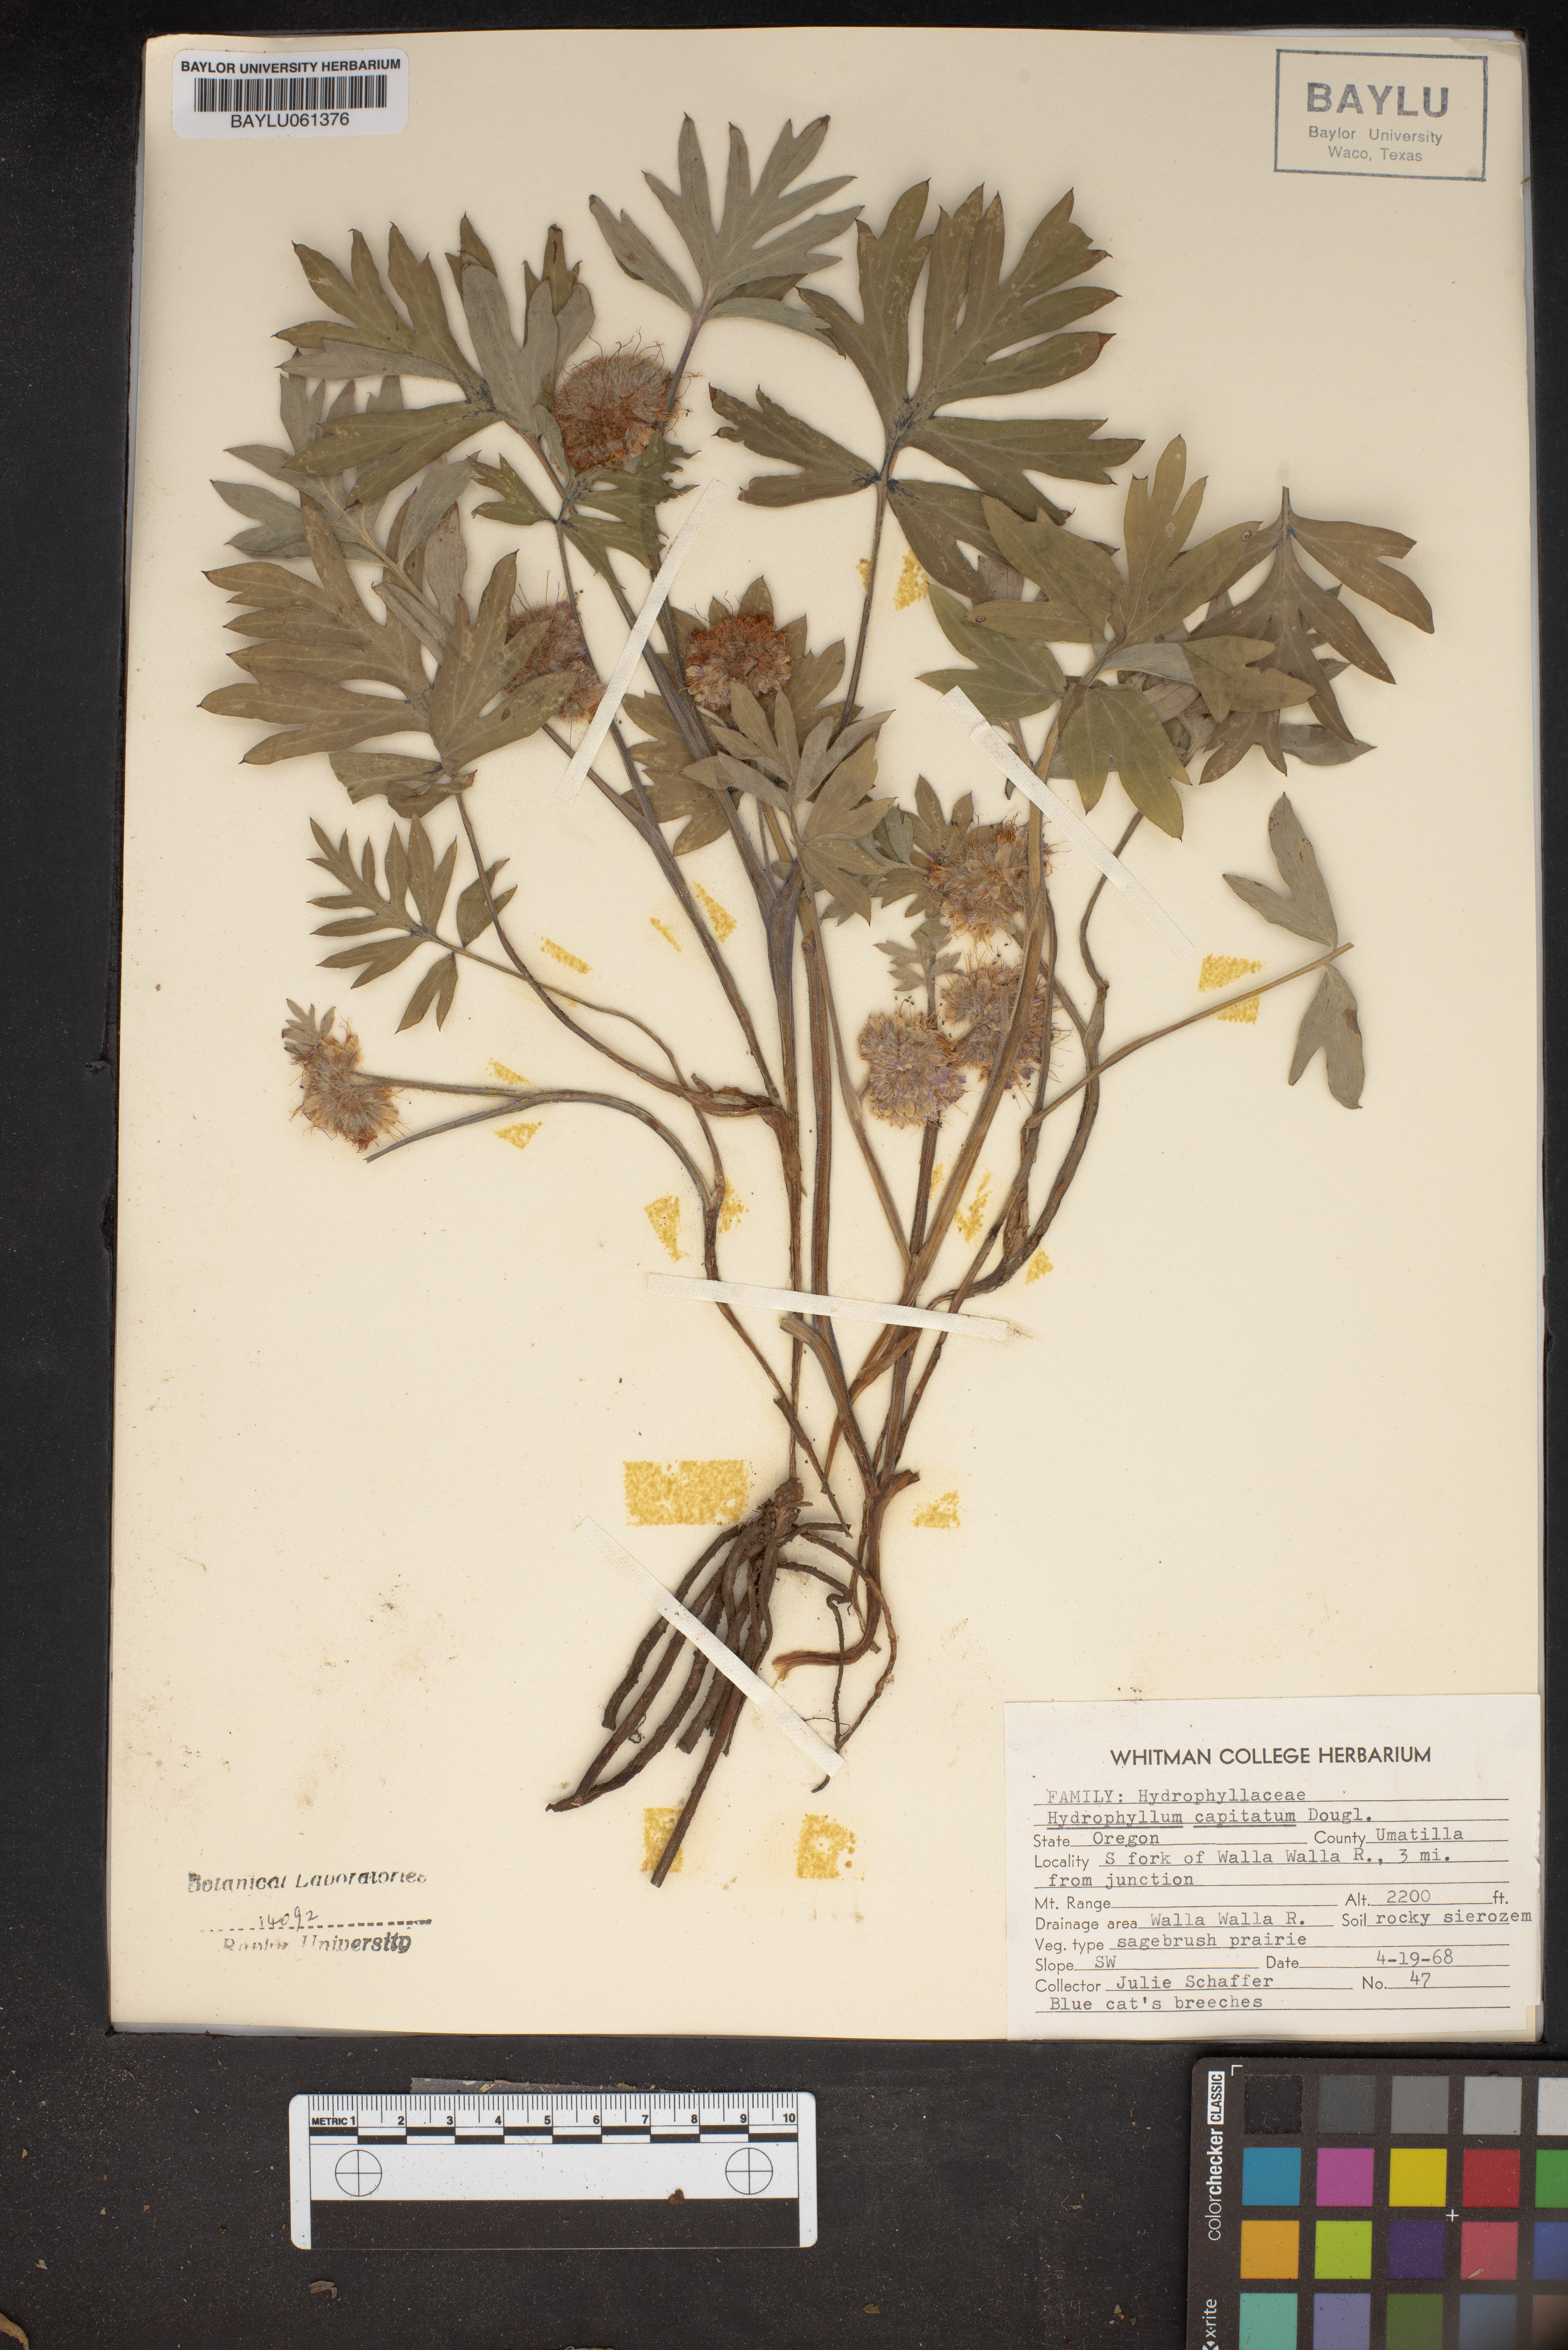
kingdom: Plantae
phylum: Tracheophyta
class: Magnoliopsida
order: Boraginales
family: Hydrophyllaceae
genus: Hydrophyllum
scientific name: Hydrophyllum capitatum
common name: Woollen-breeches
